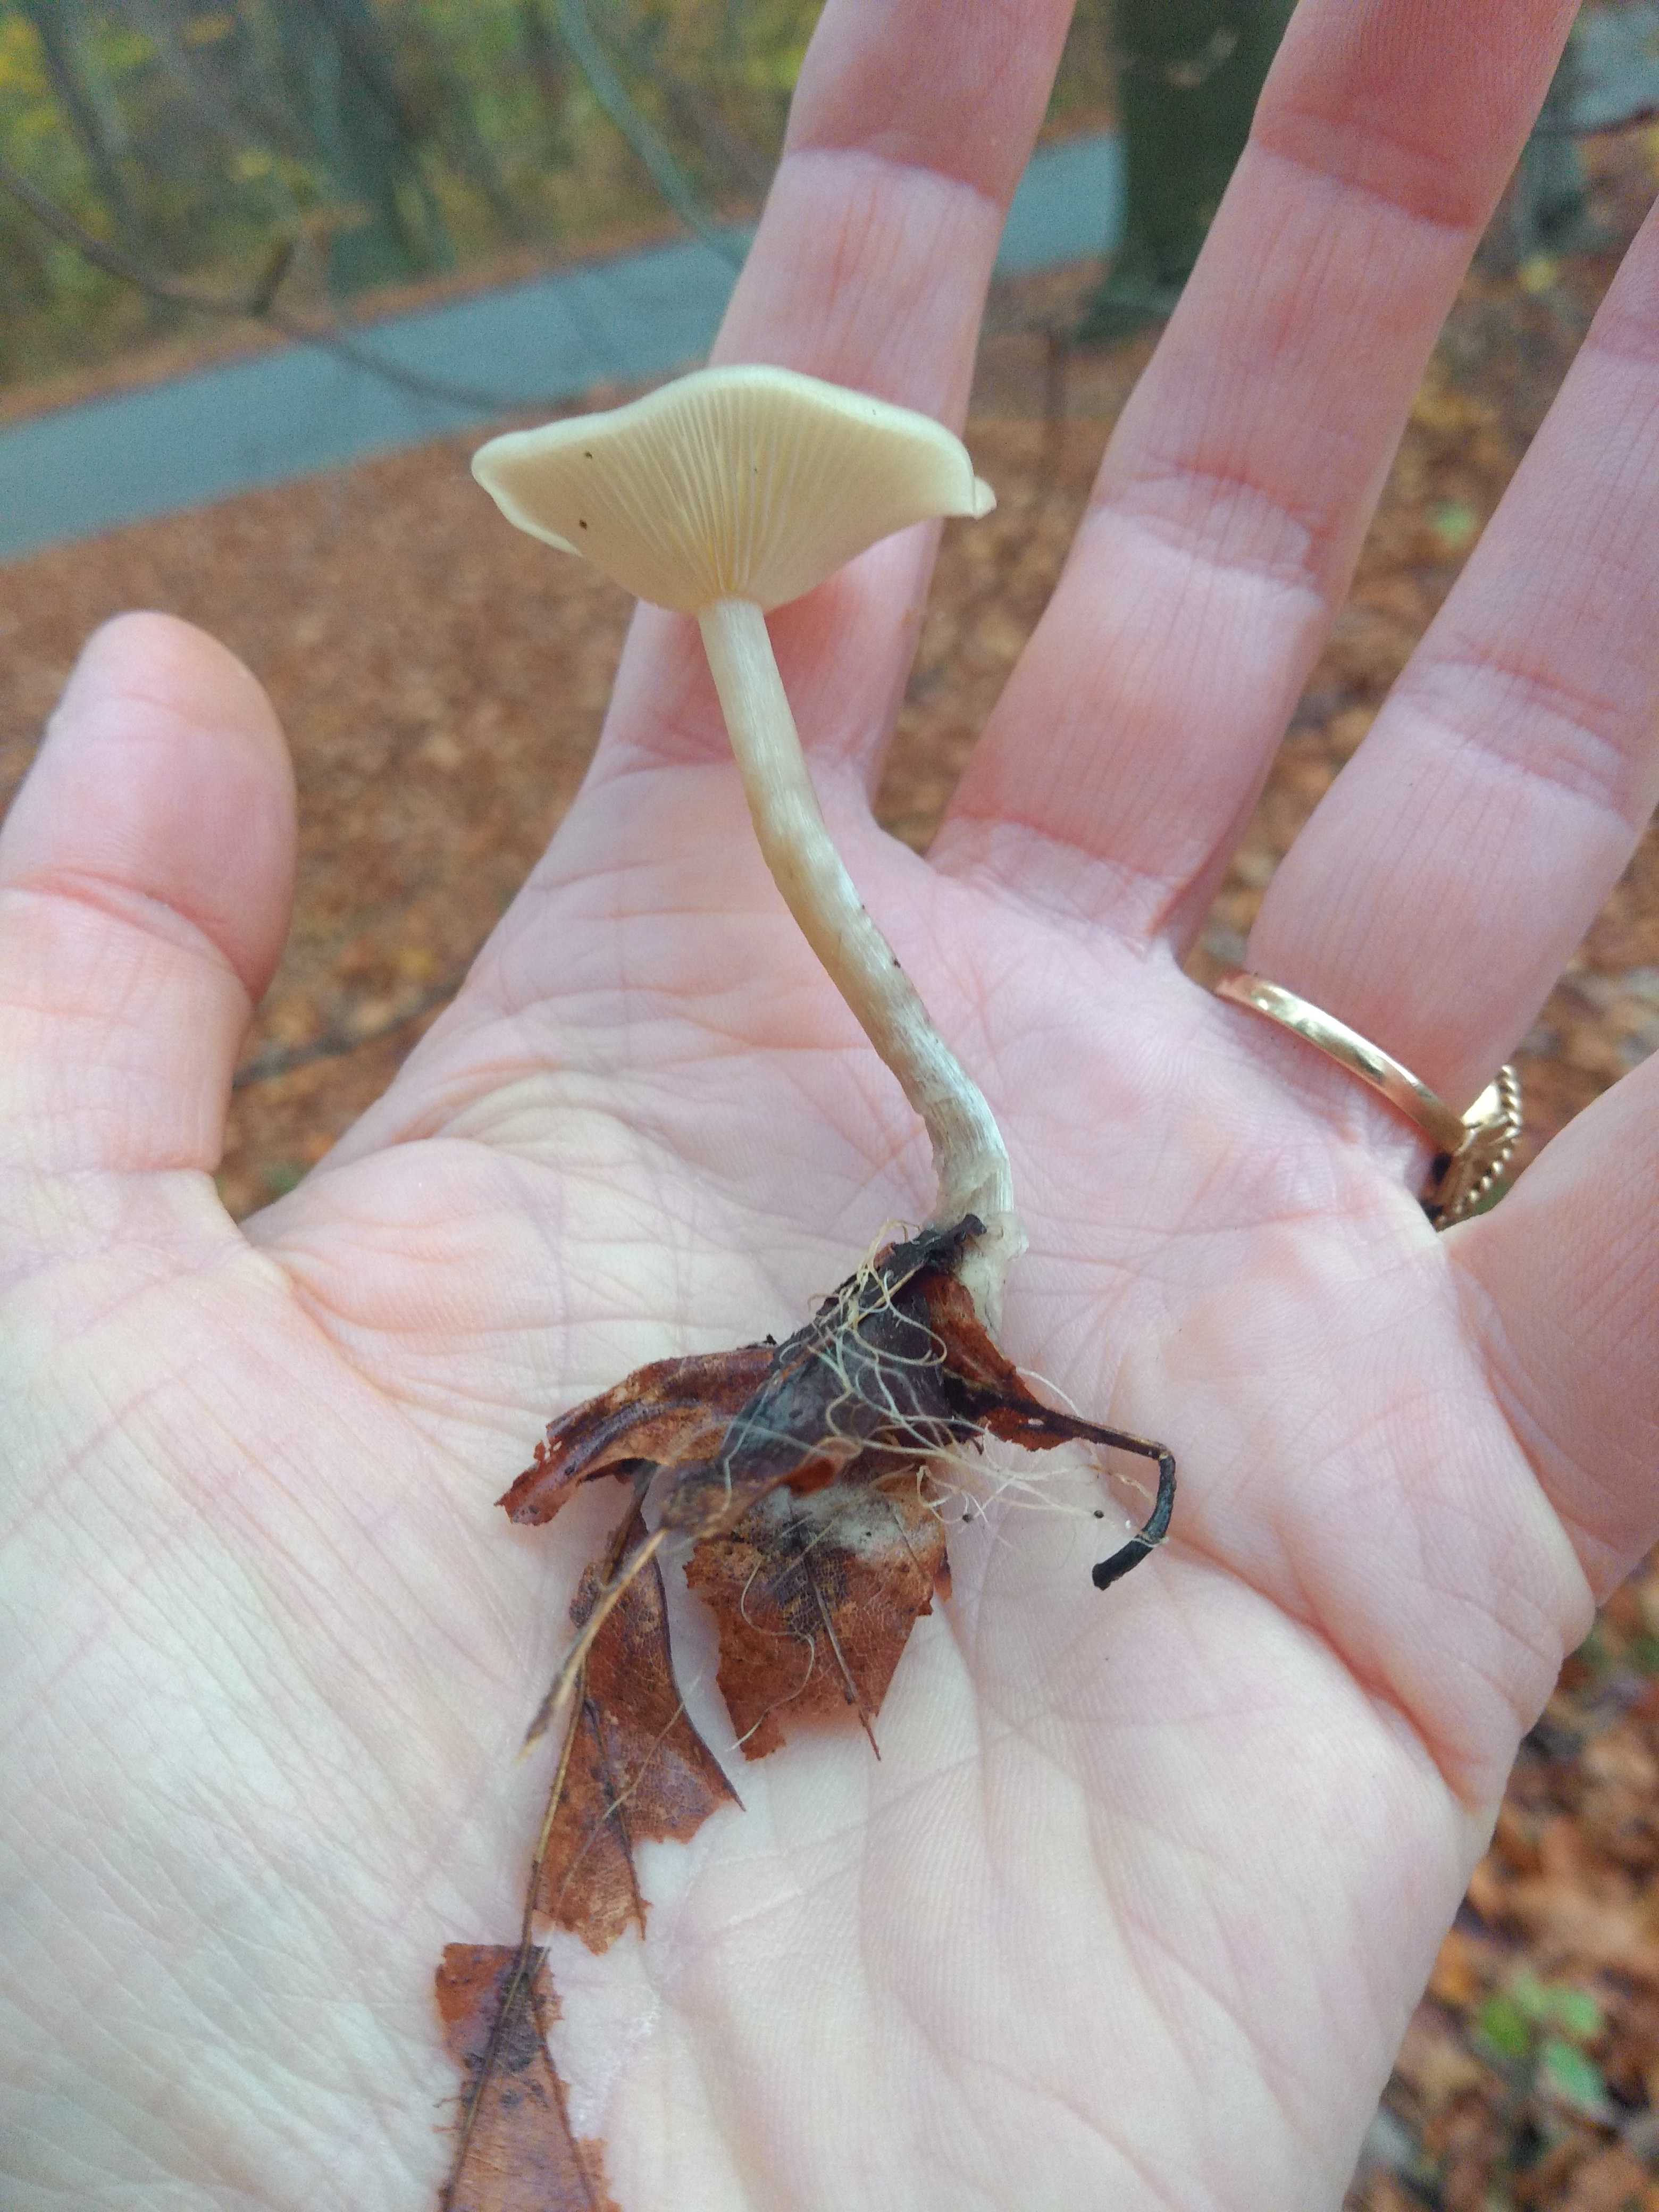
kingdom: Fungi
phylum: Basidiomycota
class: Agaricomycetes
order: Agaricales
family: Tricholomataceae
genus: Clitocybe
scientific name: Clitocybe
